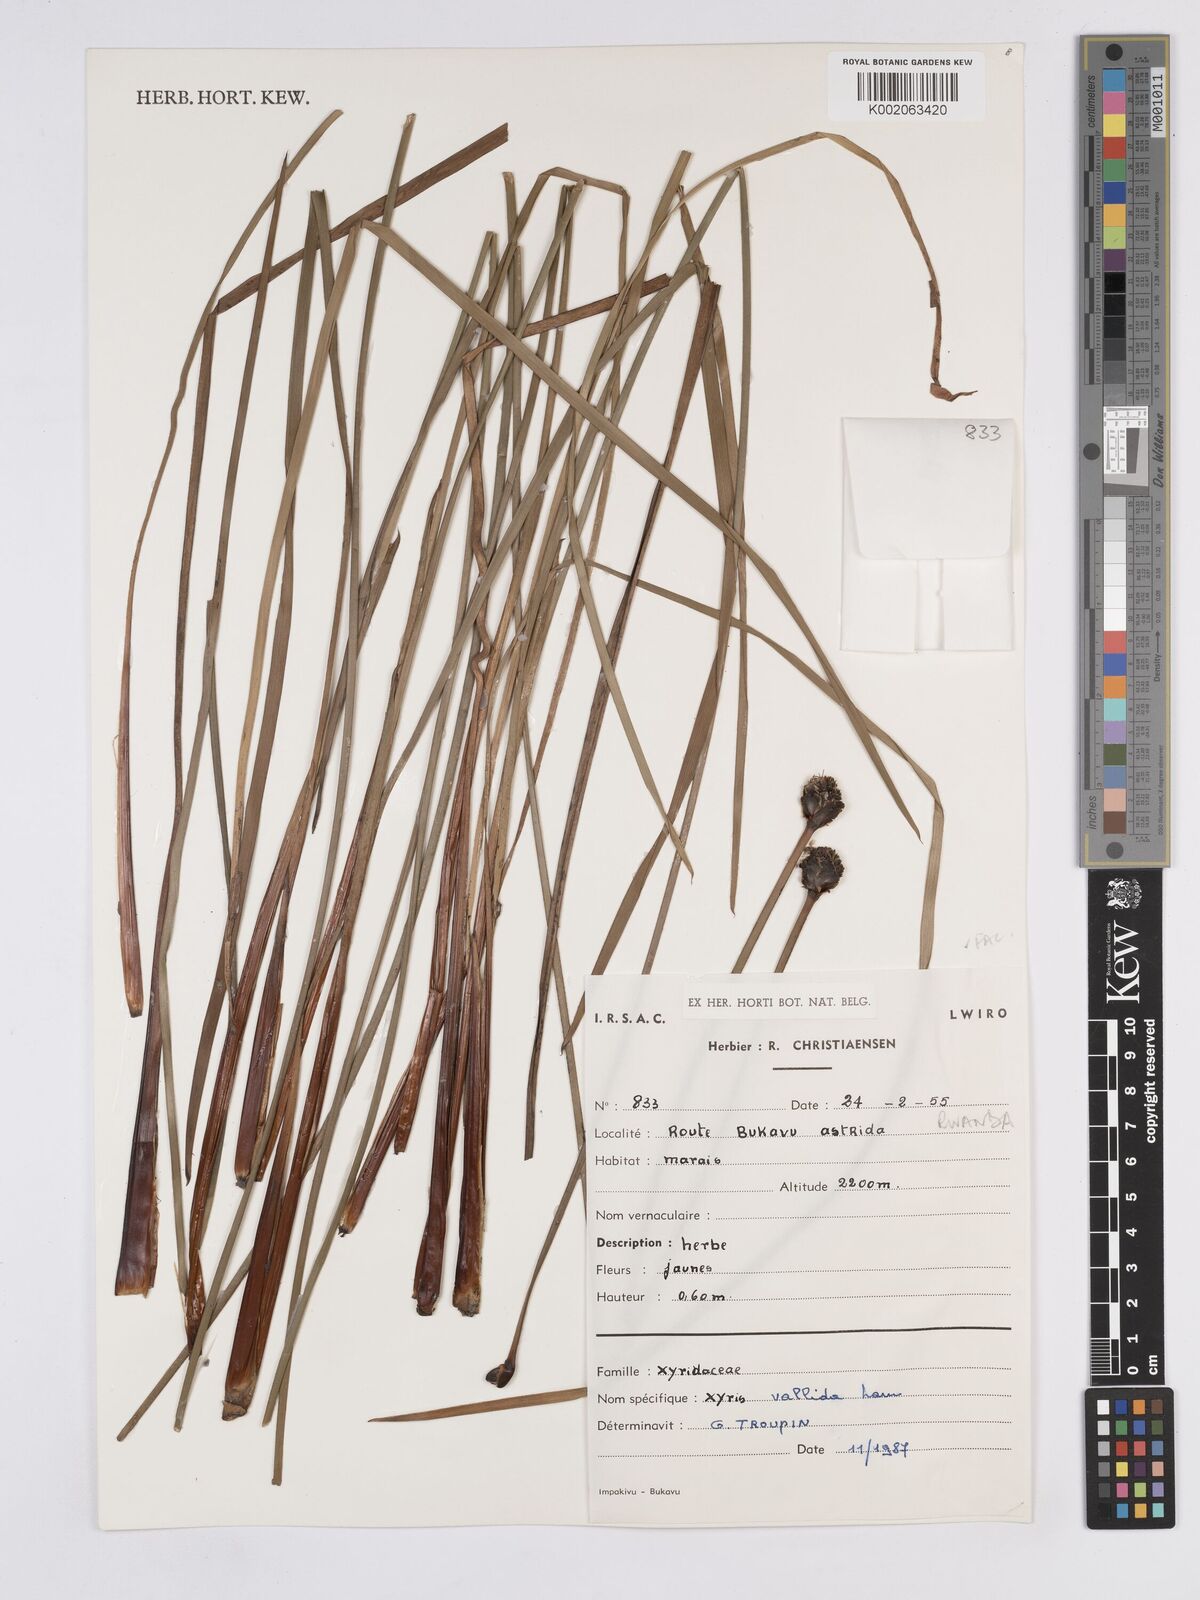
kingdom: Plantae
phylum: Tracheophyta
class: Liliopsida
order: Poales
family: Xyridaceae
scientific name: Xyridaceae
